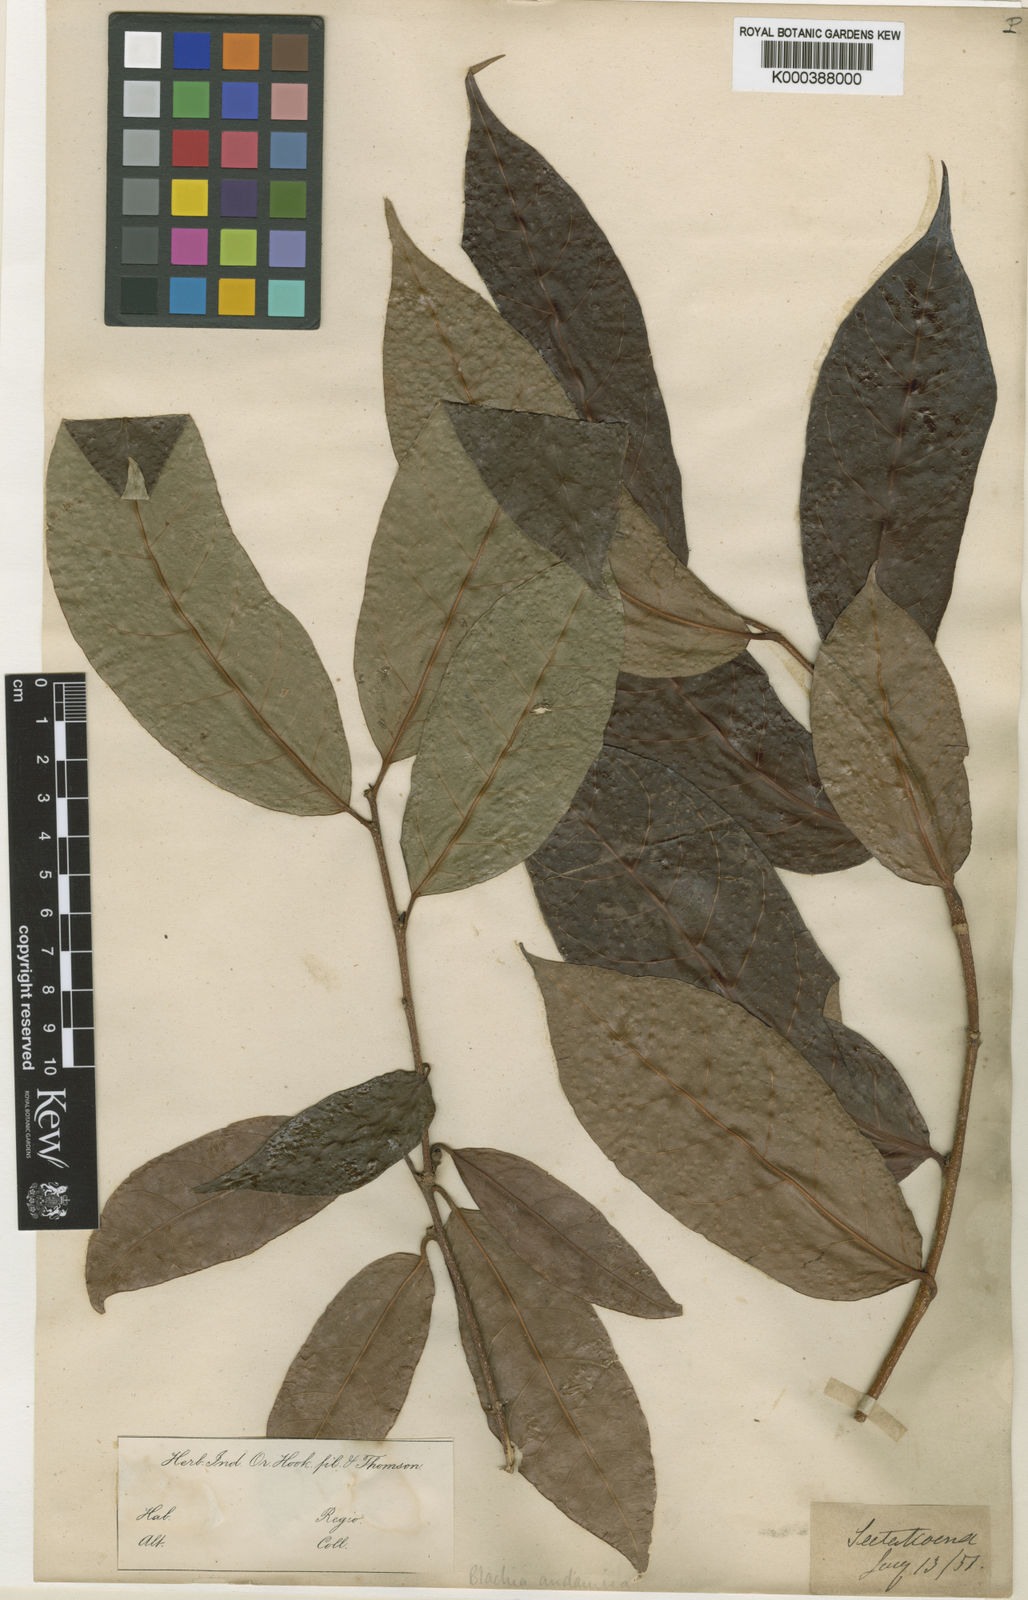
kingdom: Plantae
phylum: Tracheophyta
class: Magnoliopsida
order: Malpighiales
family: Euphorbiaceae
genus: Blachia
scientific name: Blachia andamanica
